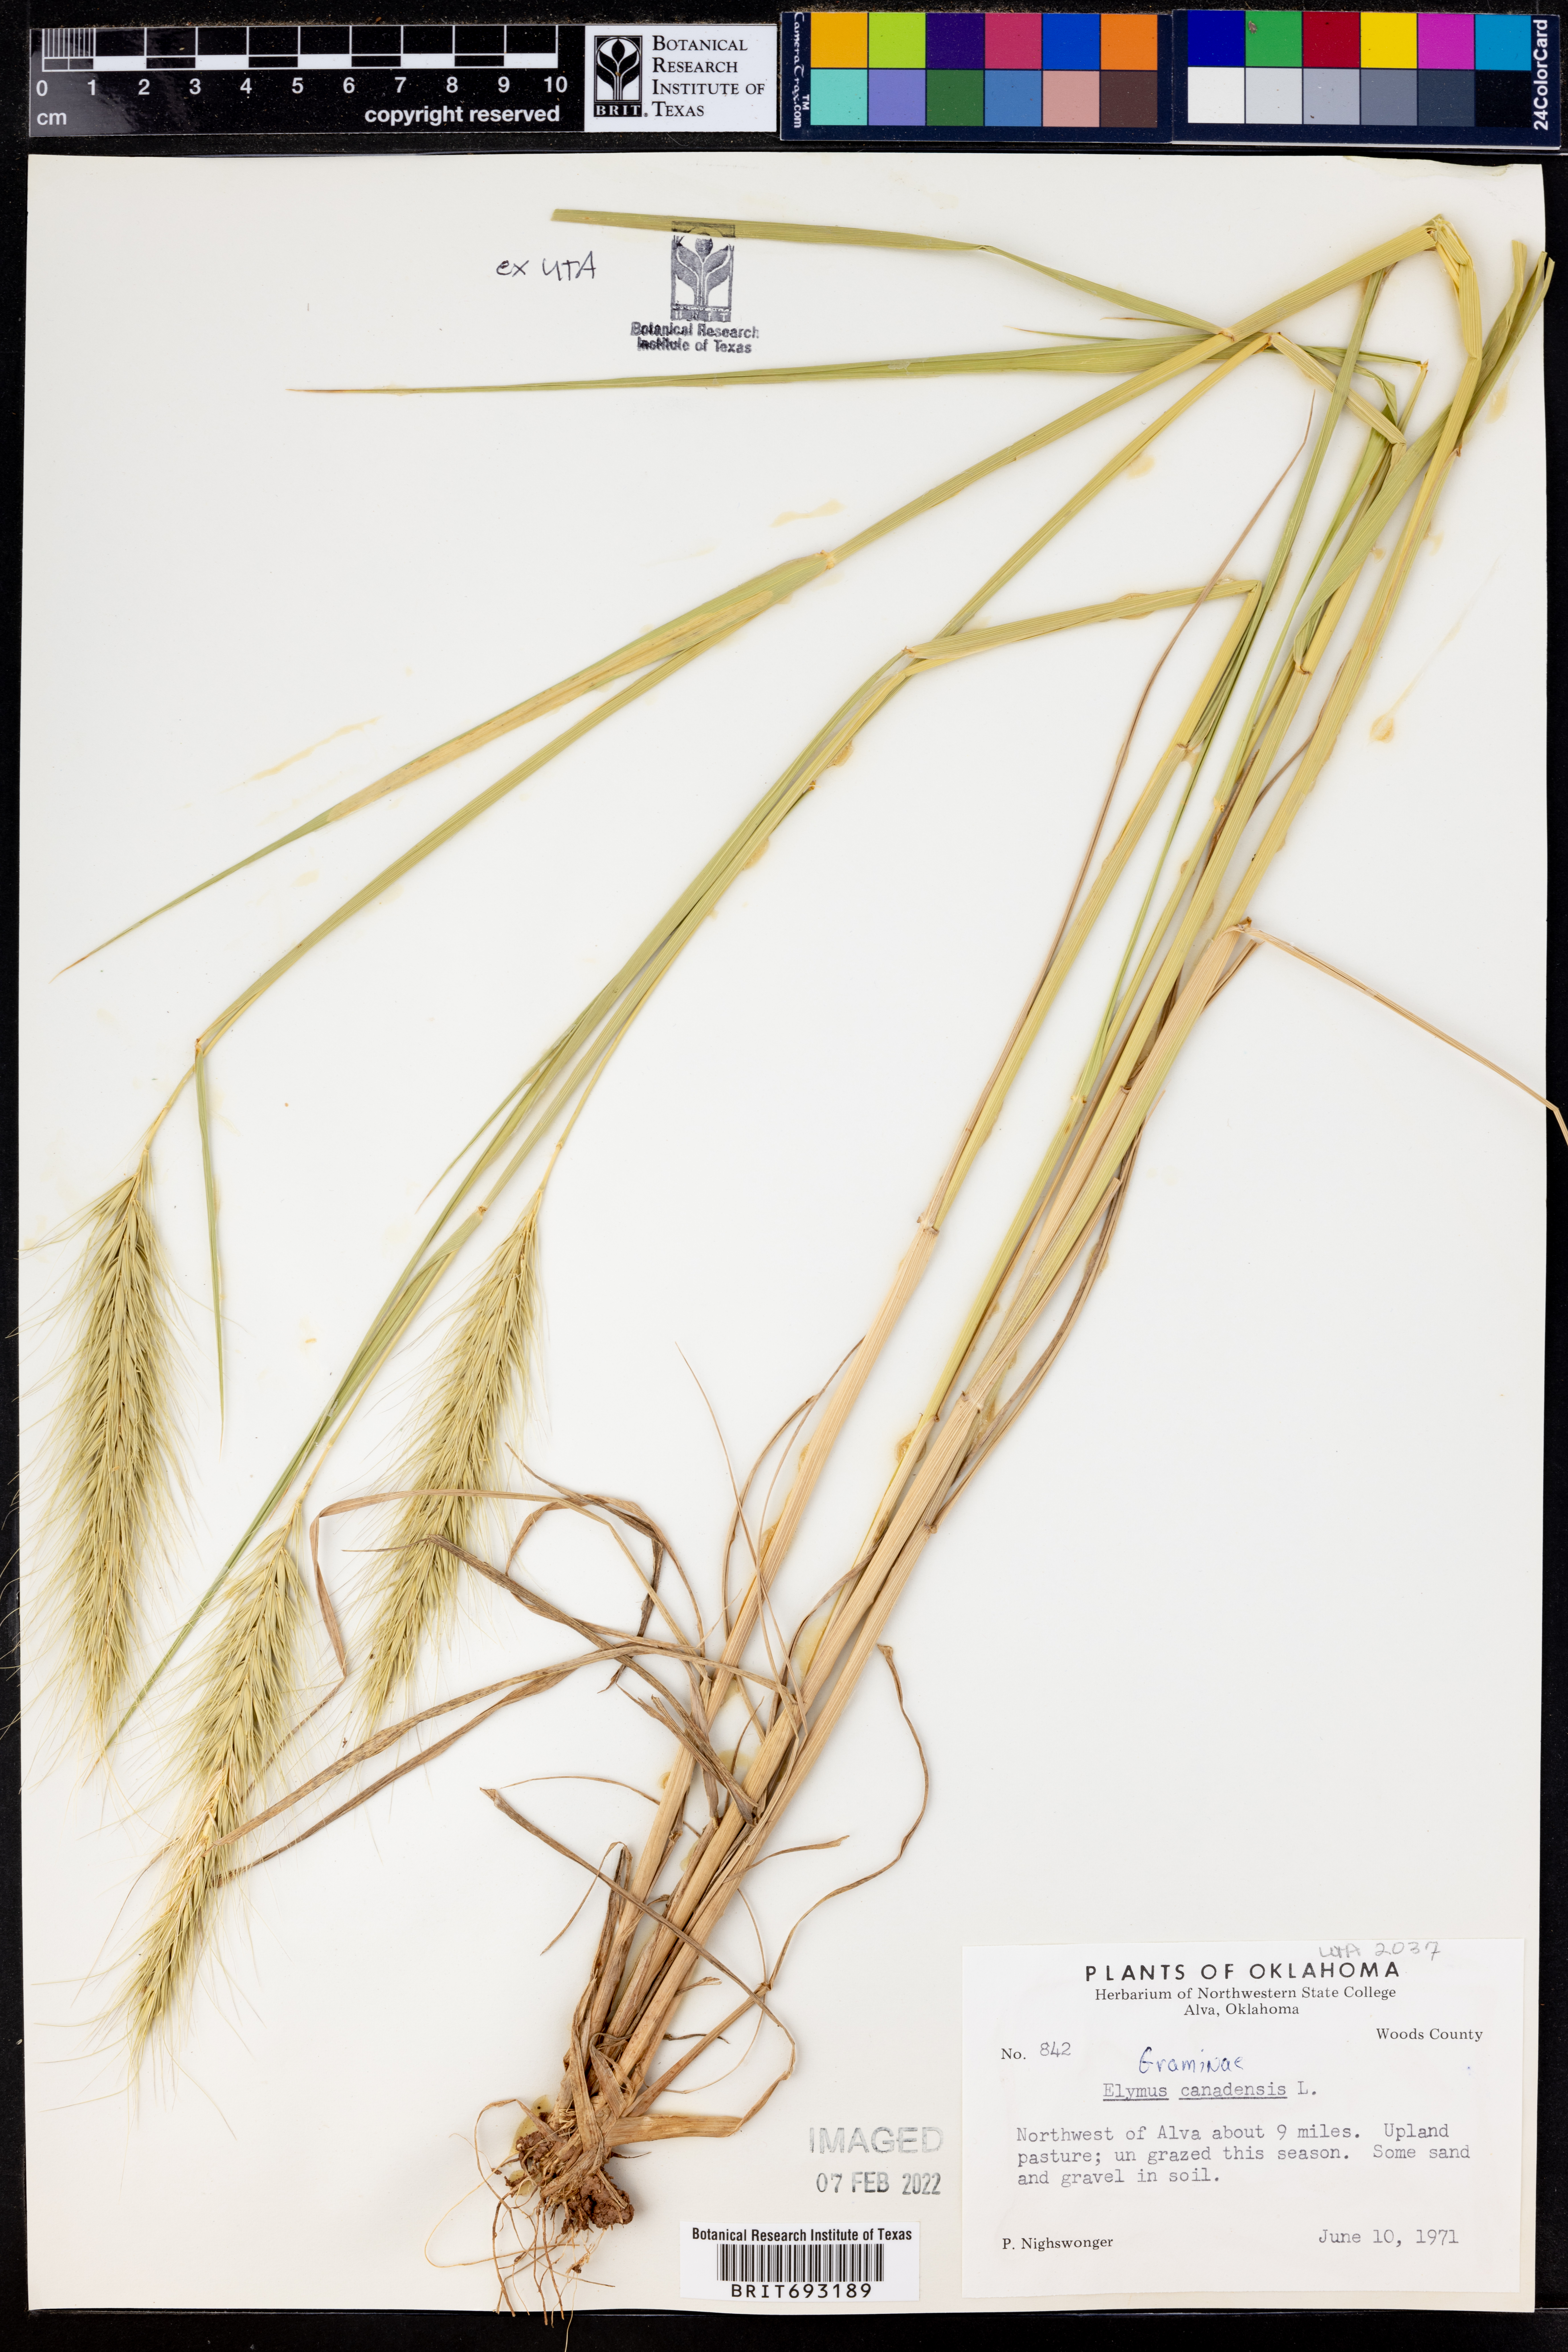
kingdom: Plantae
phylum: Tracheophyta
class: Liliopsida
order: Poales
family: Poaceae
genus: Elymus
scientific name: Elymus canadensis
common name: Canada wild rye
